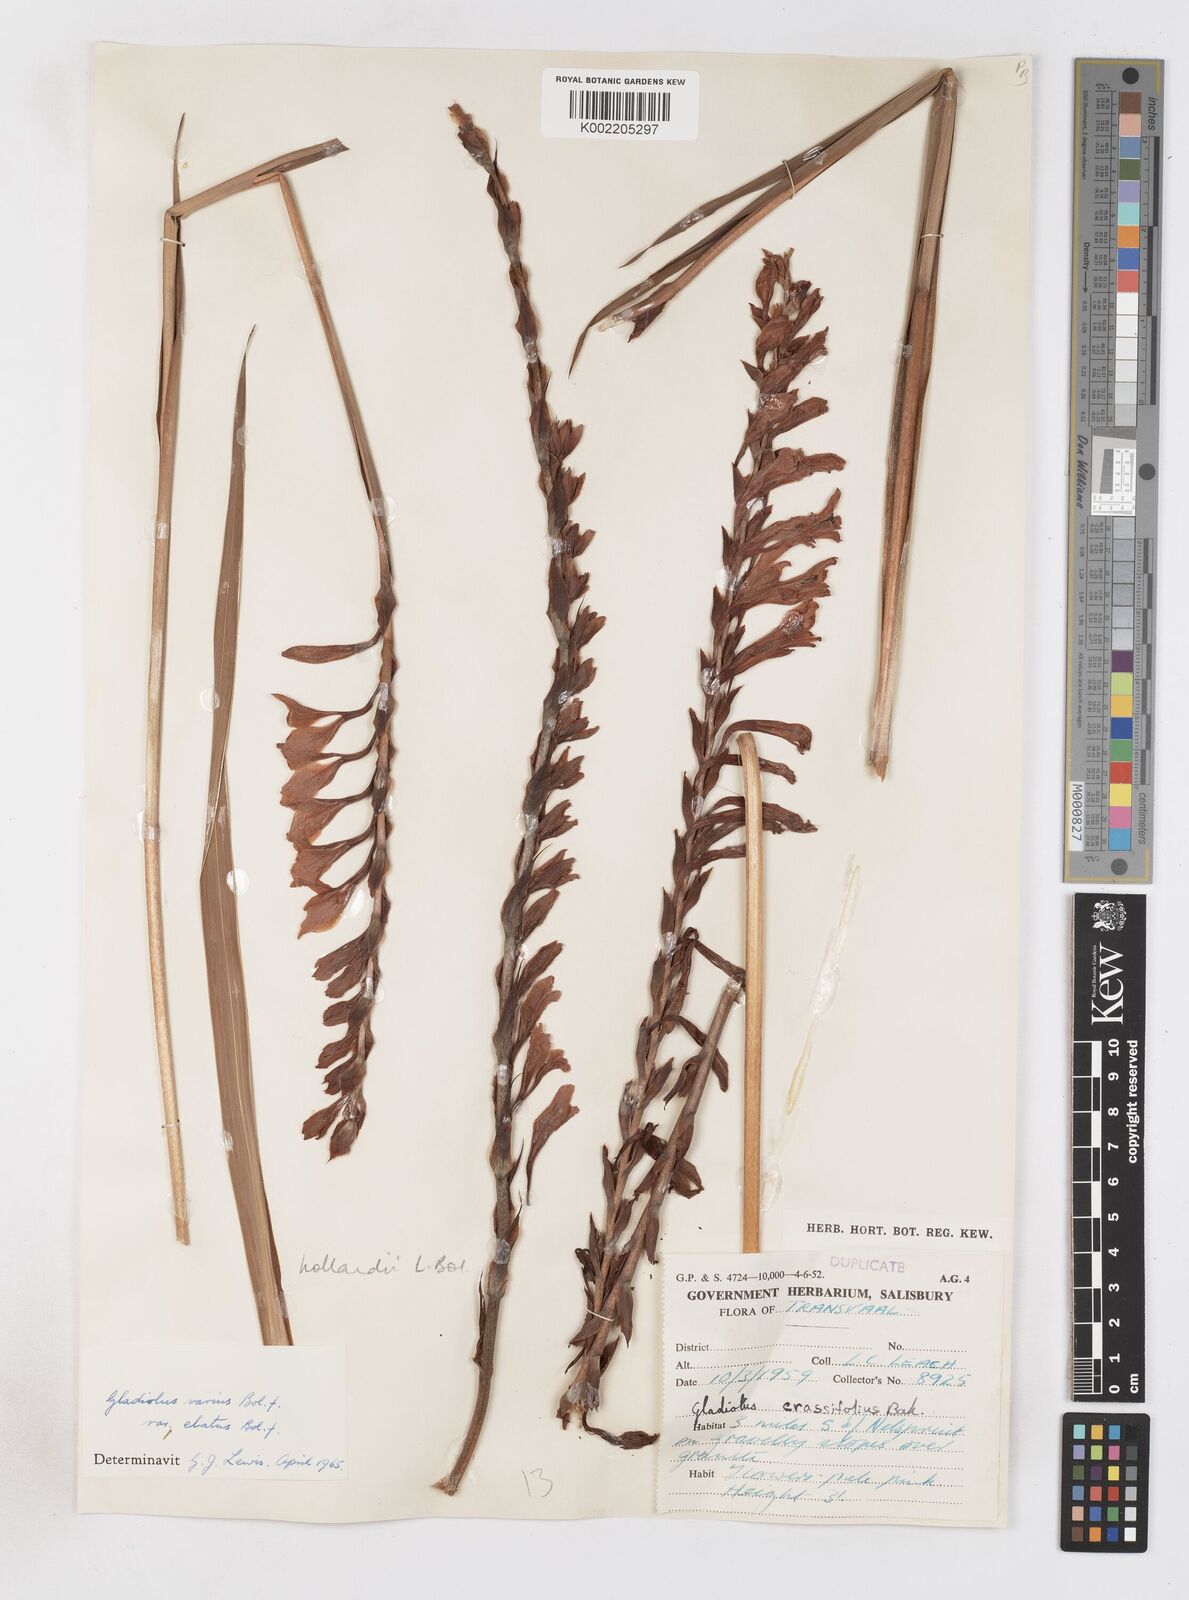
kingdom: Plantae
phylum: Tracheophyta
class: Liliopsida
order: Asparagales
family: Iridaceae
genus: Gladiolus
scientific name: Gladiolus hollandii
